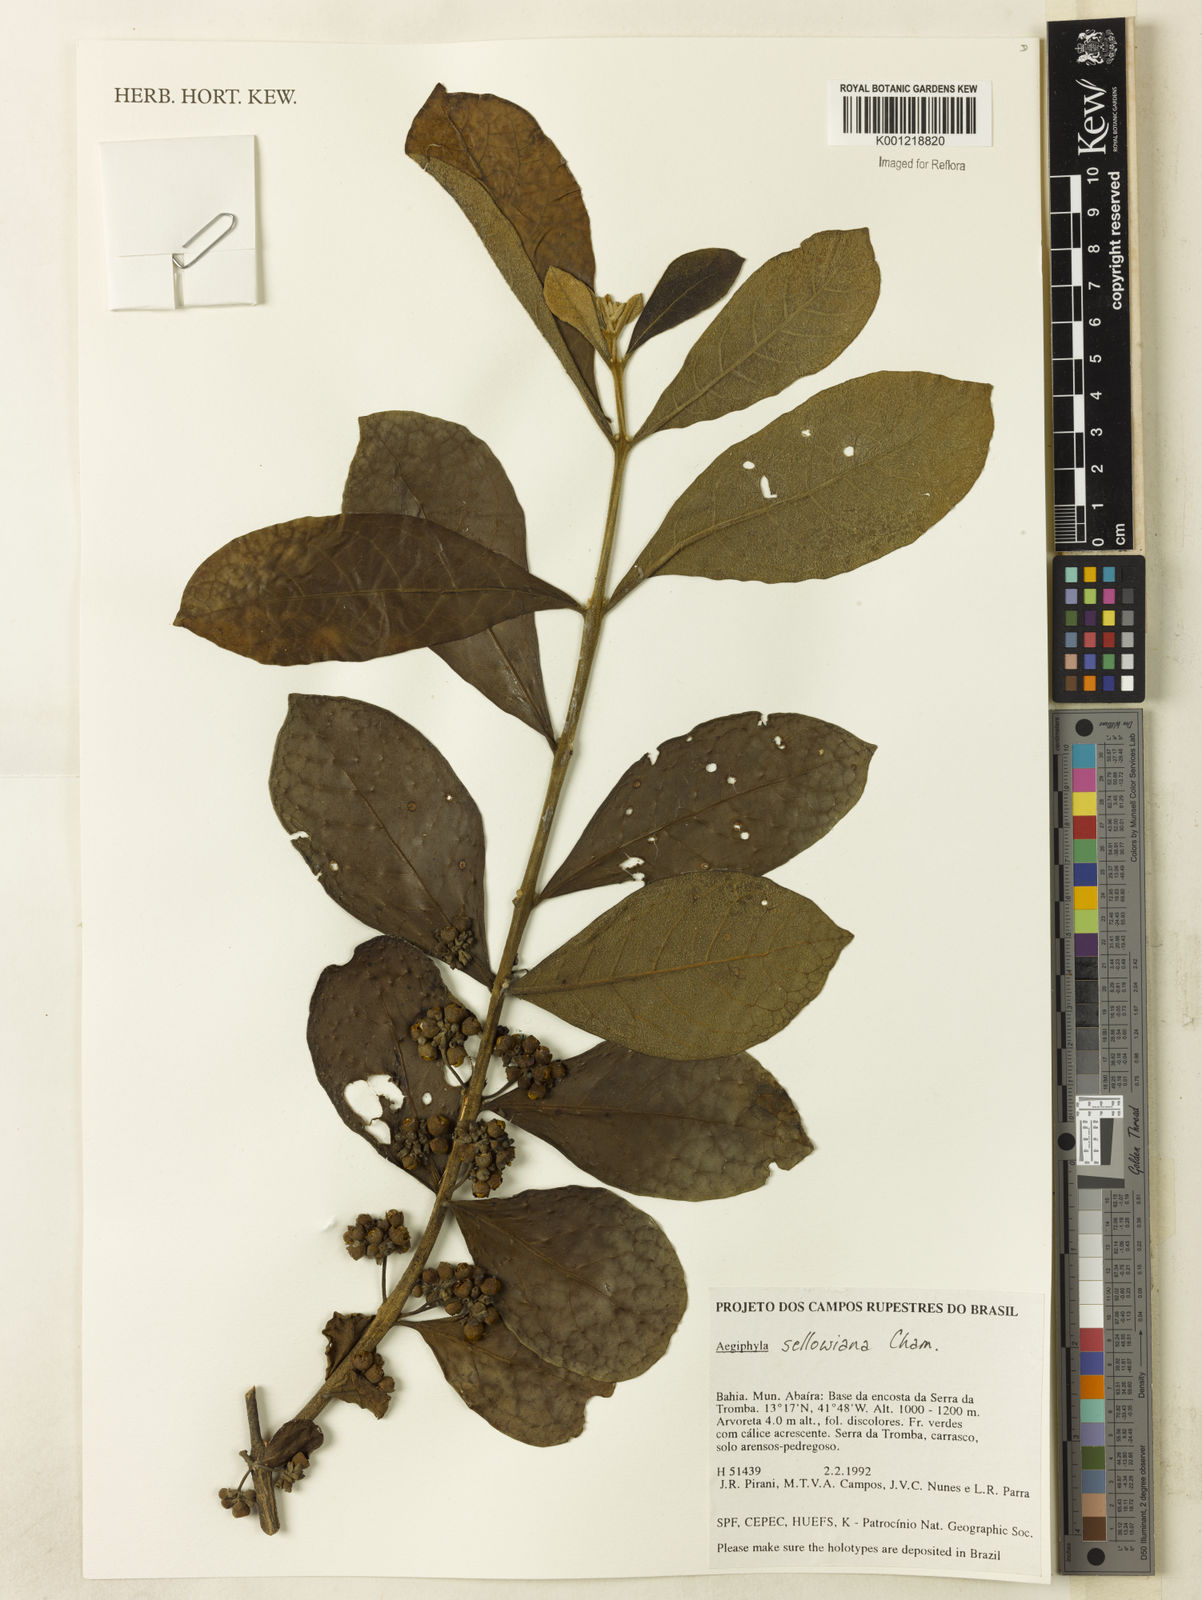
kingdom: Plantae
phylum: Tracheophyta
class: Magnoliopsida
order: Lamiales
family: Lamiaceae
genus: Aegiphila
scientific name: Aegiphila verticillata
